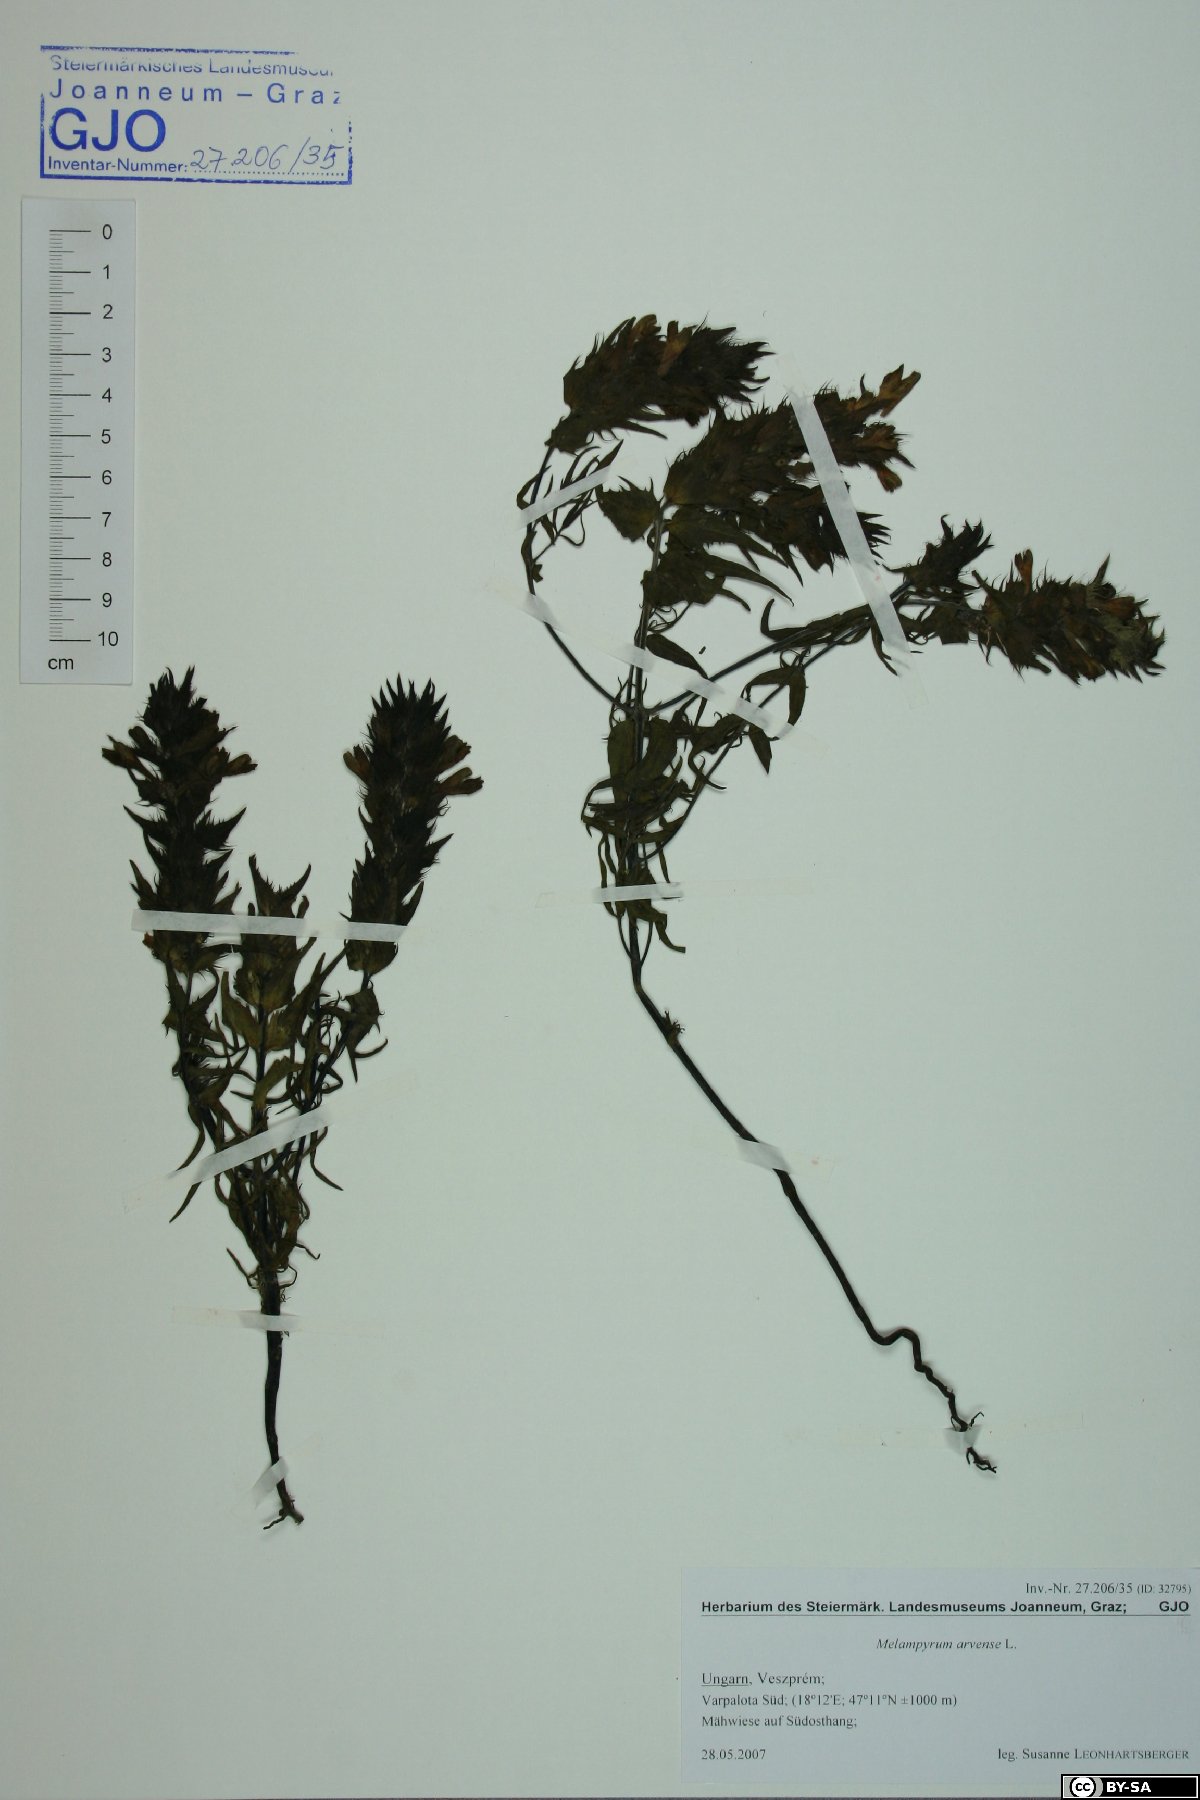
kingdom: Plantae
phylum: Tracheophyta
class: Magnoliopsida
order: Lamiales
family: Orobanchaceae
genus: Melampyrum
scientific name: Melampyrum arvense
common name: Field cow-wheat
